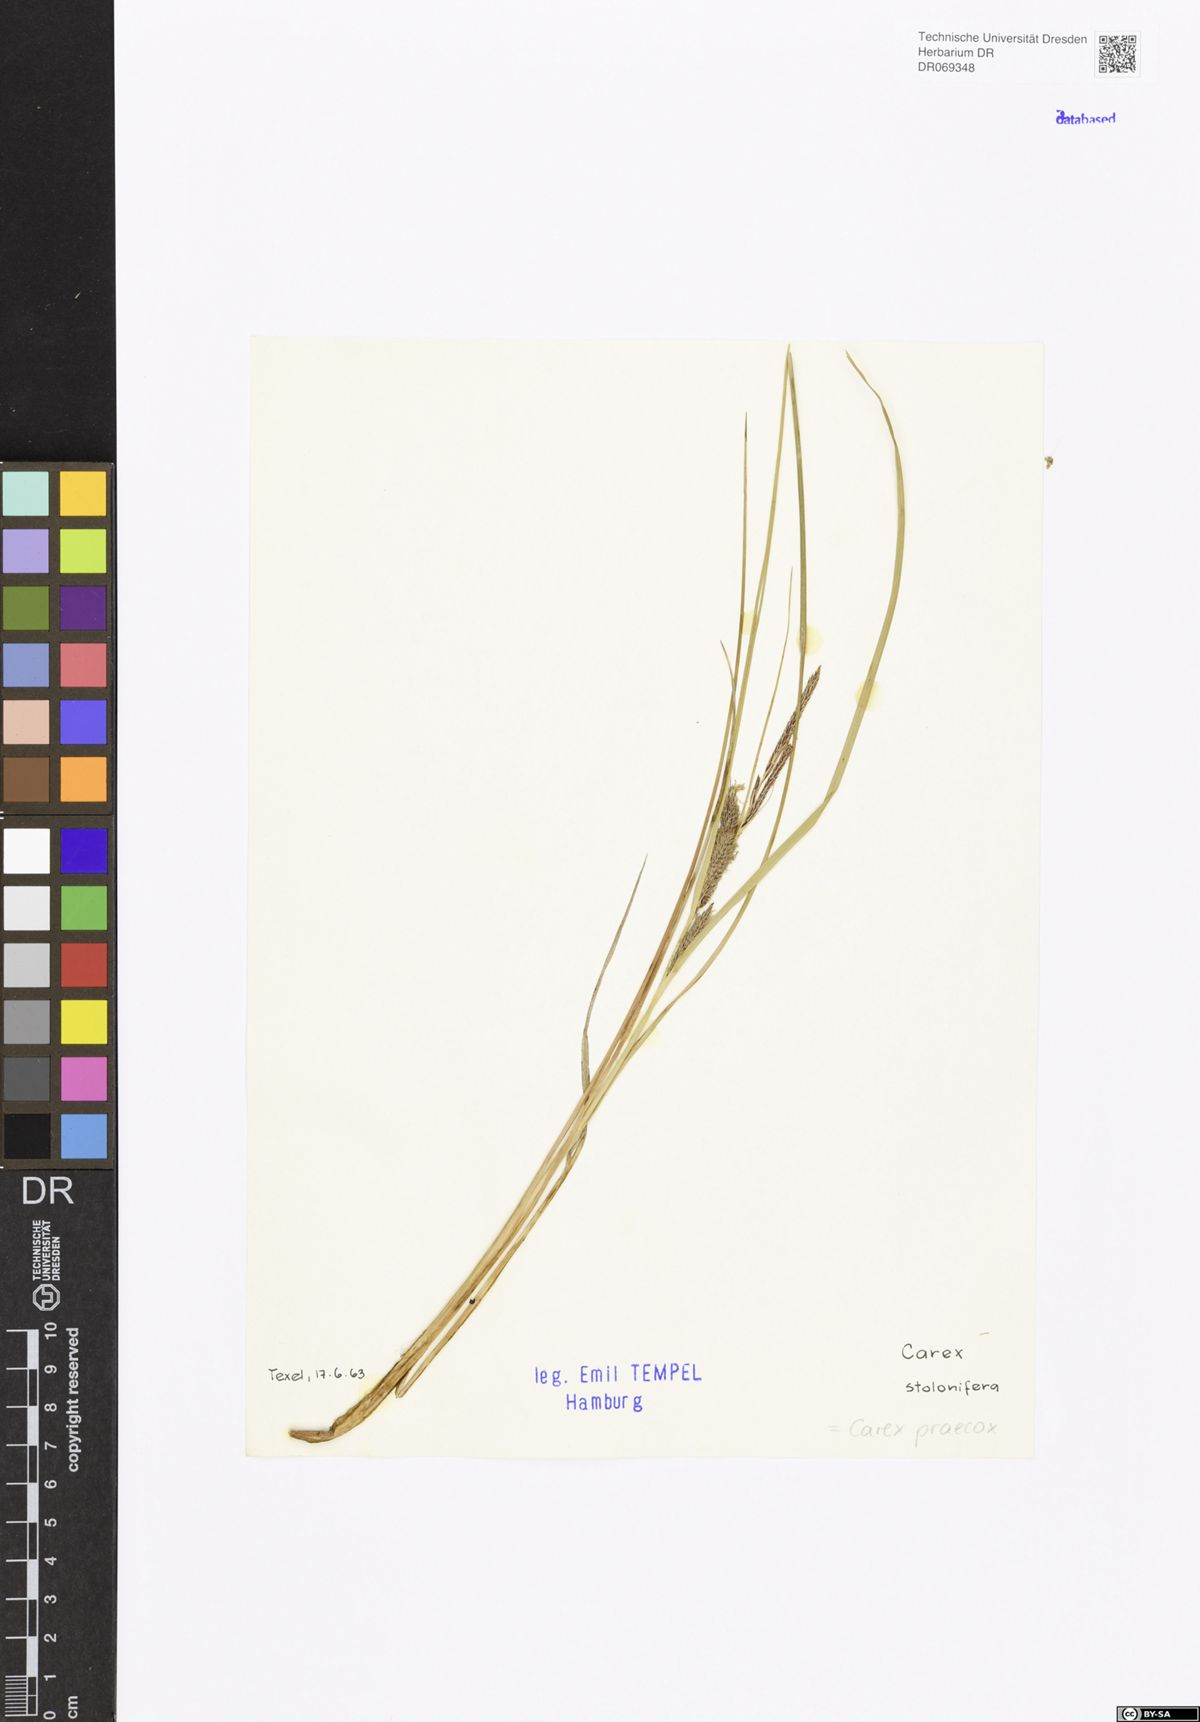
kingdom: Plantae
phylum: Tracheophyta
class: Liliopsida
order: Poales
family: Cyperaceae
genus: Carex
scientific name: Carex praecox
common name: Early sedge
